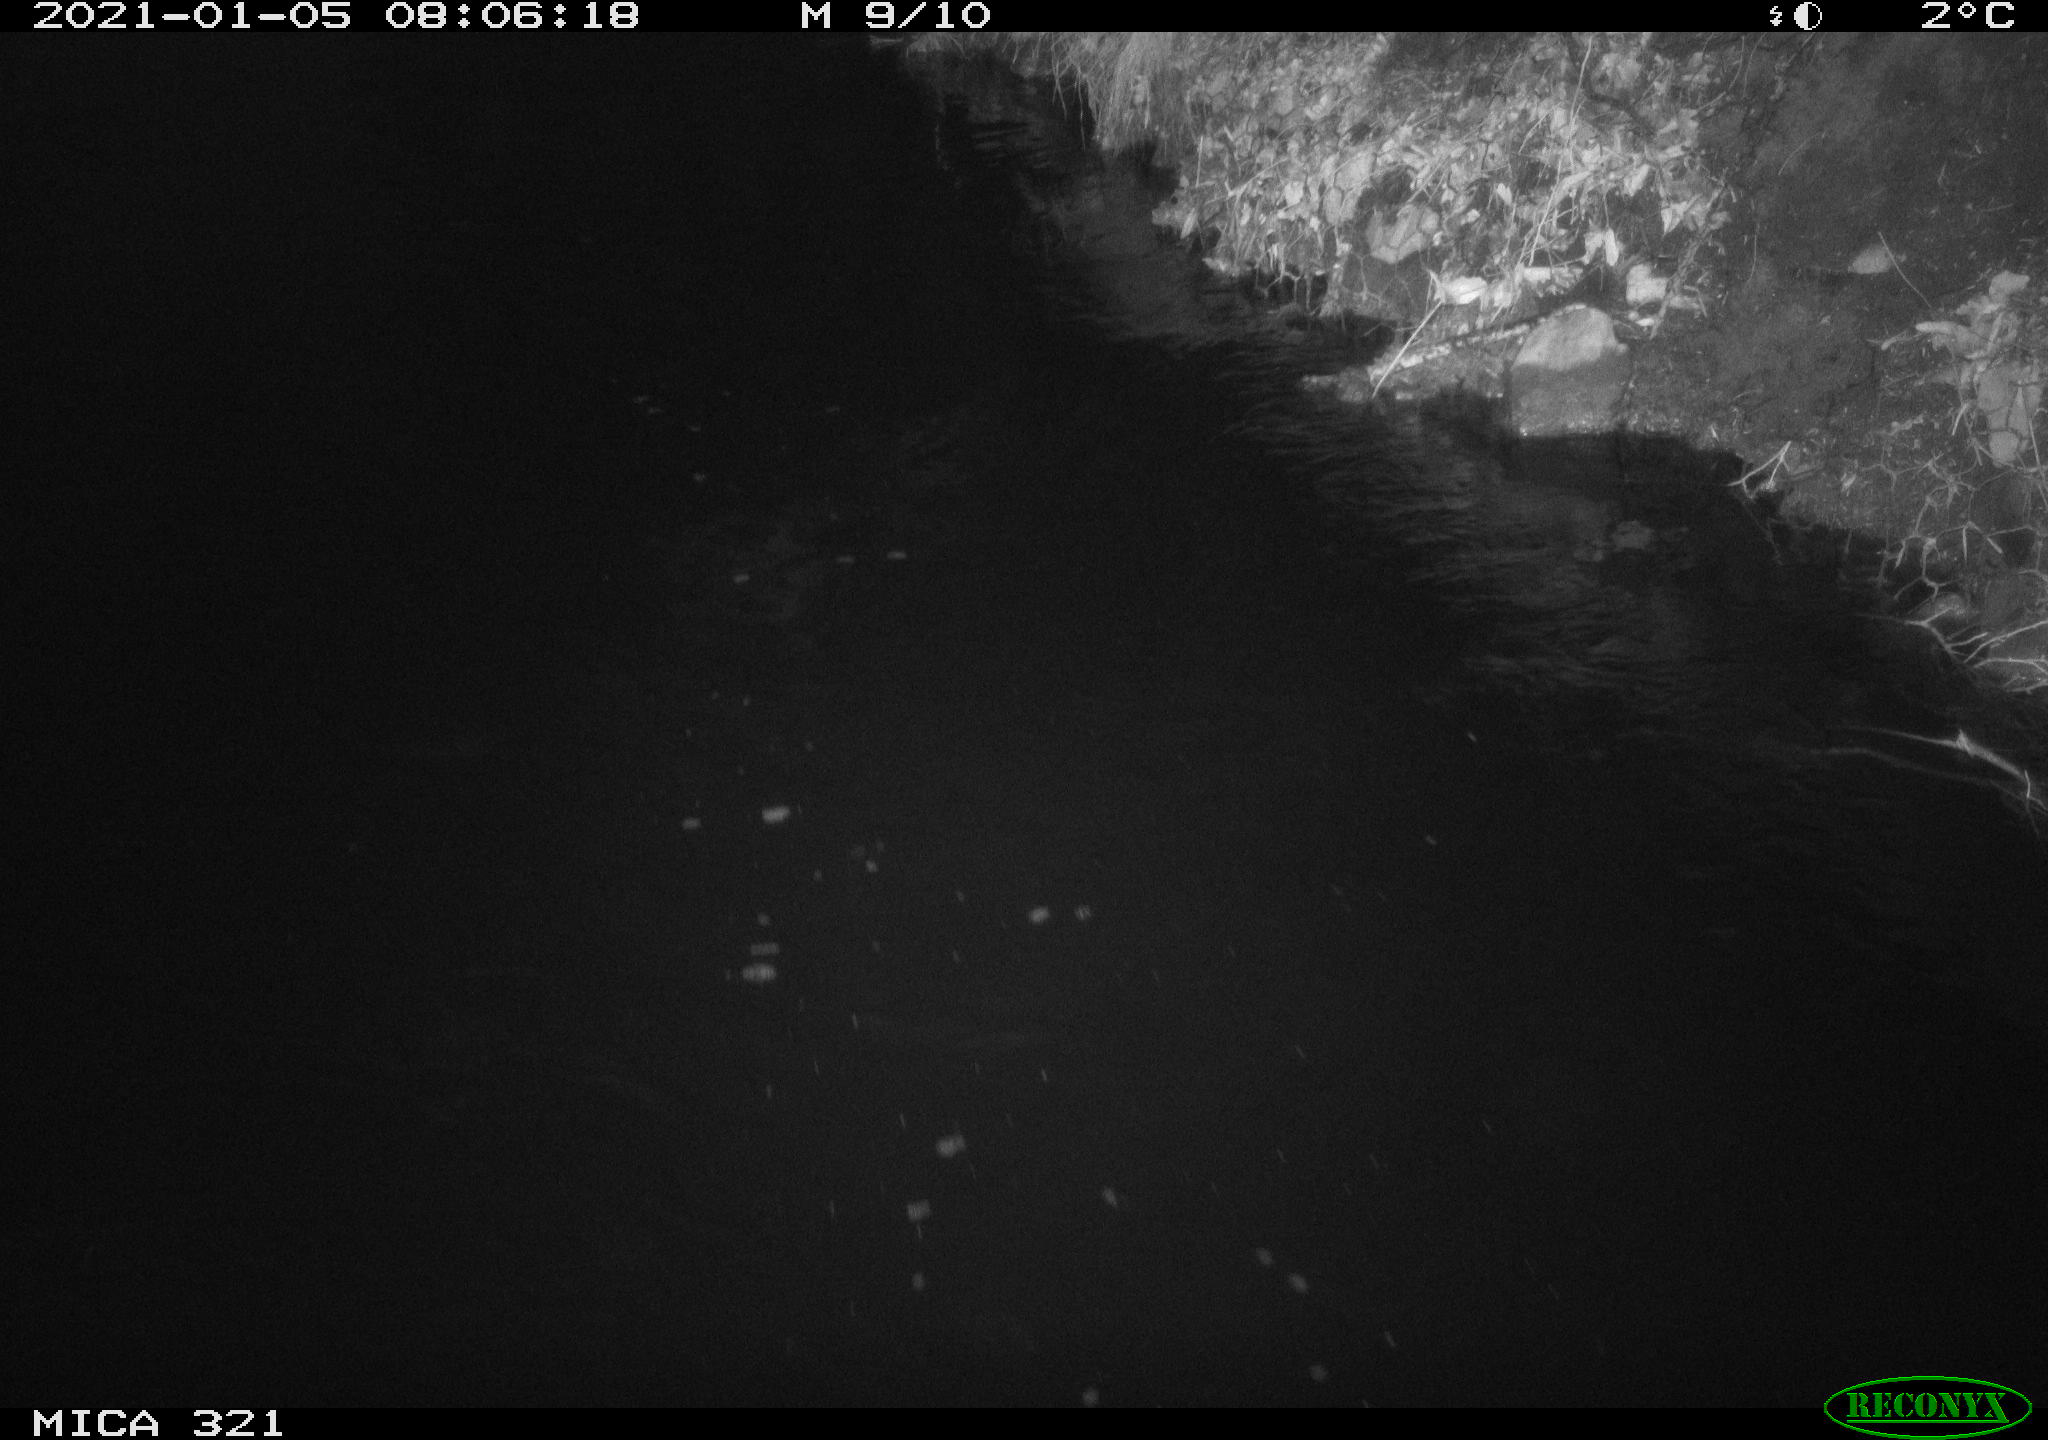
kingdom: Animalia
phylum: Chordata
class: Aves
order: Anseriformes
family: Anatidae
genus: Anas
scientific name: Anas platyrhynchos
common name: Mallard
